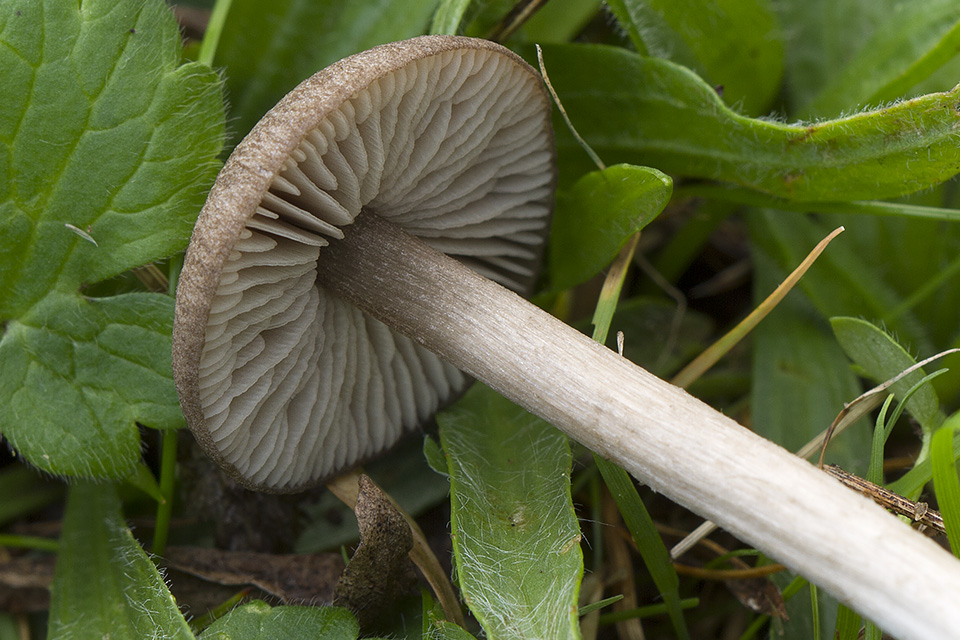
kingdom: Fungi
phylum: Basidiomycota
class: Agaricomycetes
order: Agaricales
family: Entolomataceae
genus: Entoloma
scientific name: Entoloma ameides
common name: sødlig rødblad
